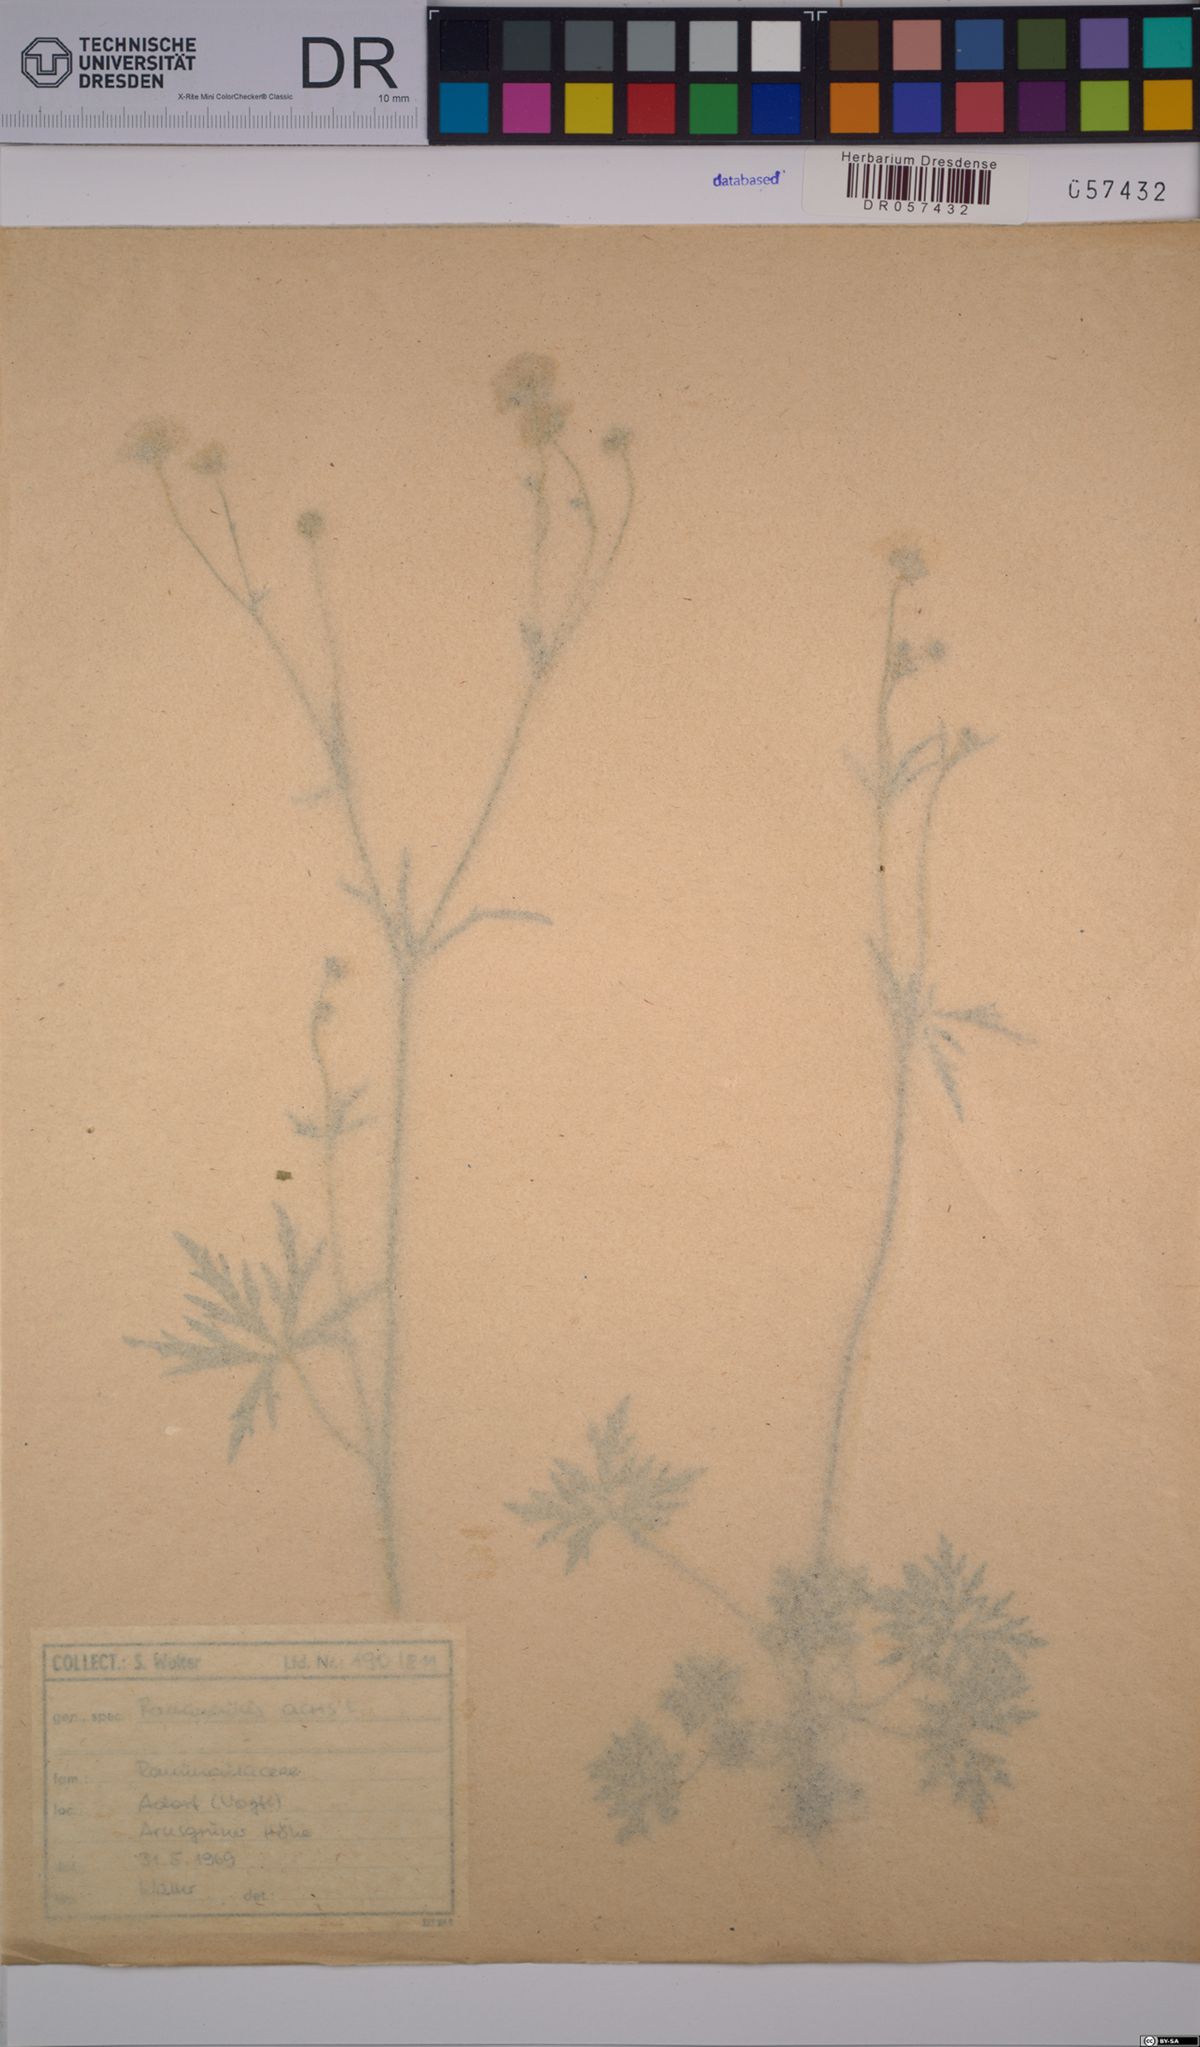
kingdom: Plantae
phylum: Tracheophyta
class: Magnoliopsida
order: Ranunculales
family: Ranunculaceae
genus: Ranunculus
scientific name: Ranunculus acris
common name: Meadow buttercup
